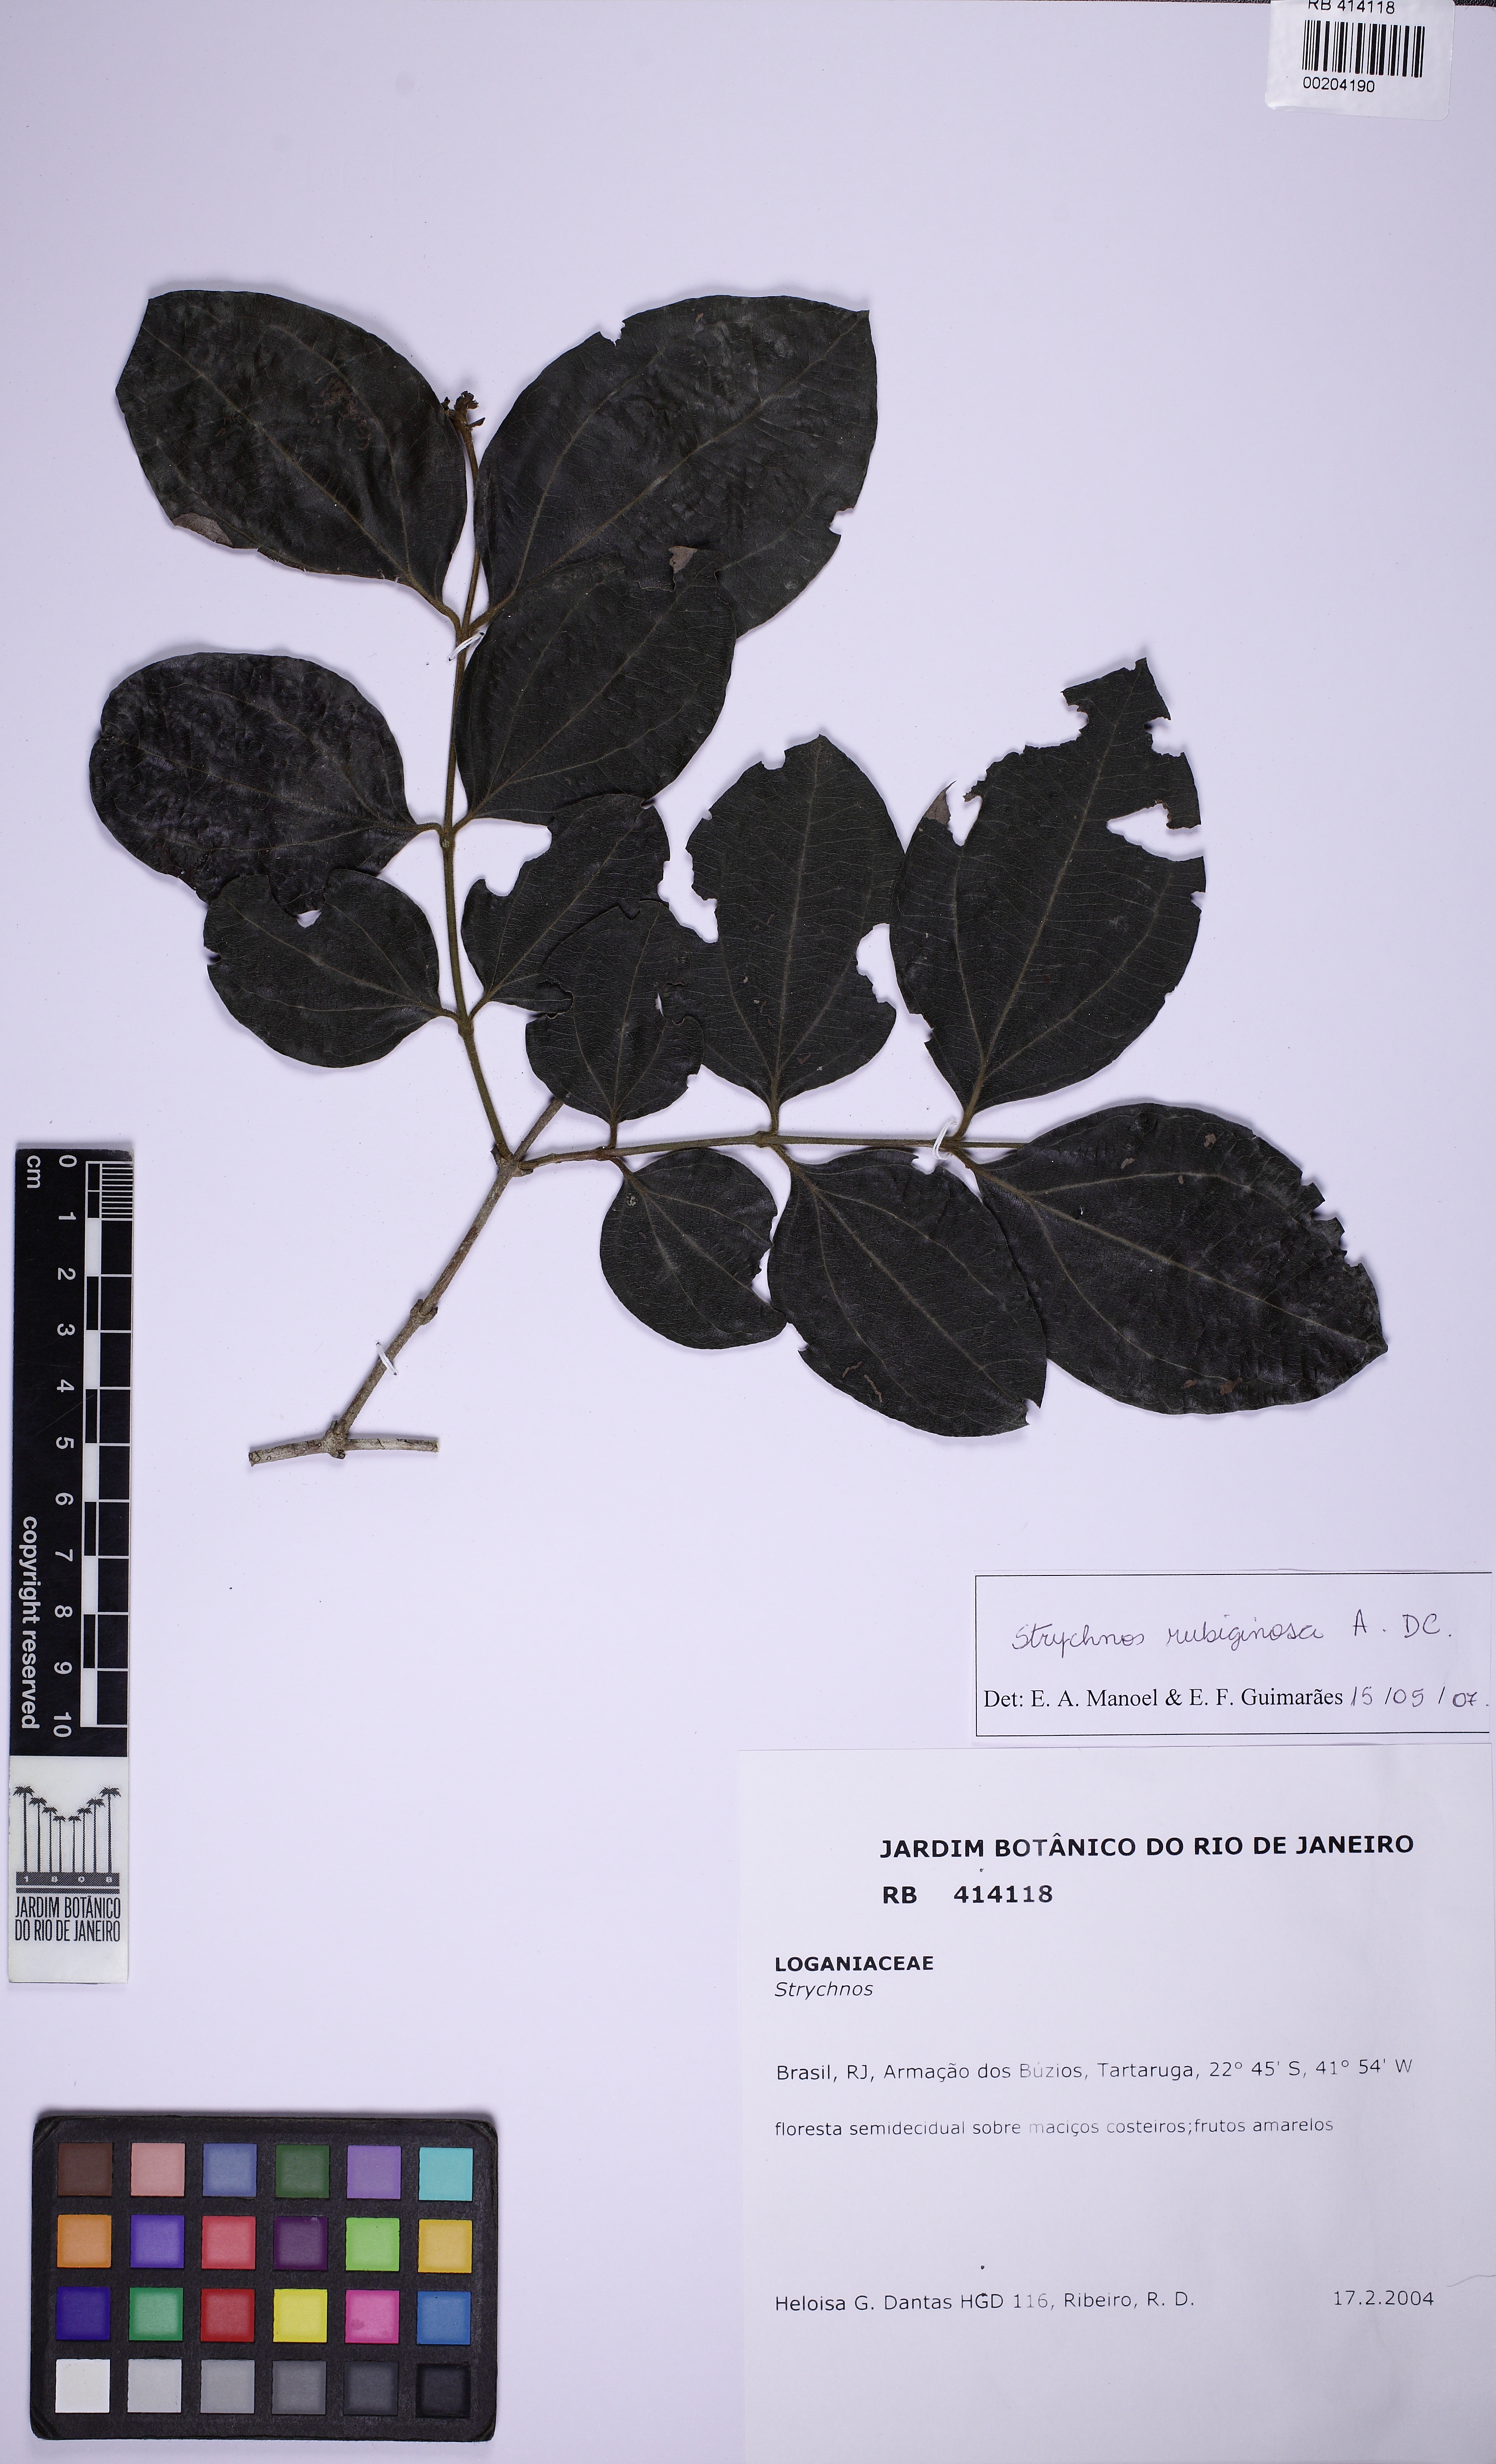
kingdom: Plantae
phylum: Tracheophyta
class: Magnoliopsida
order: Gentianales
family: Loganiaceae
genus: Strychnos
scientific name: Strychnos rubiginosa
